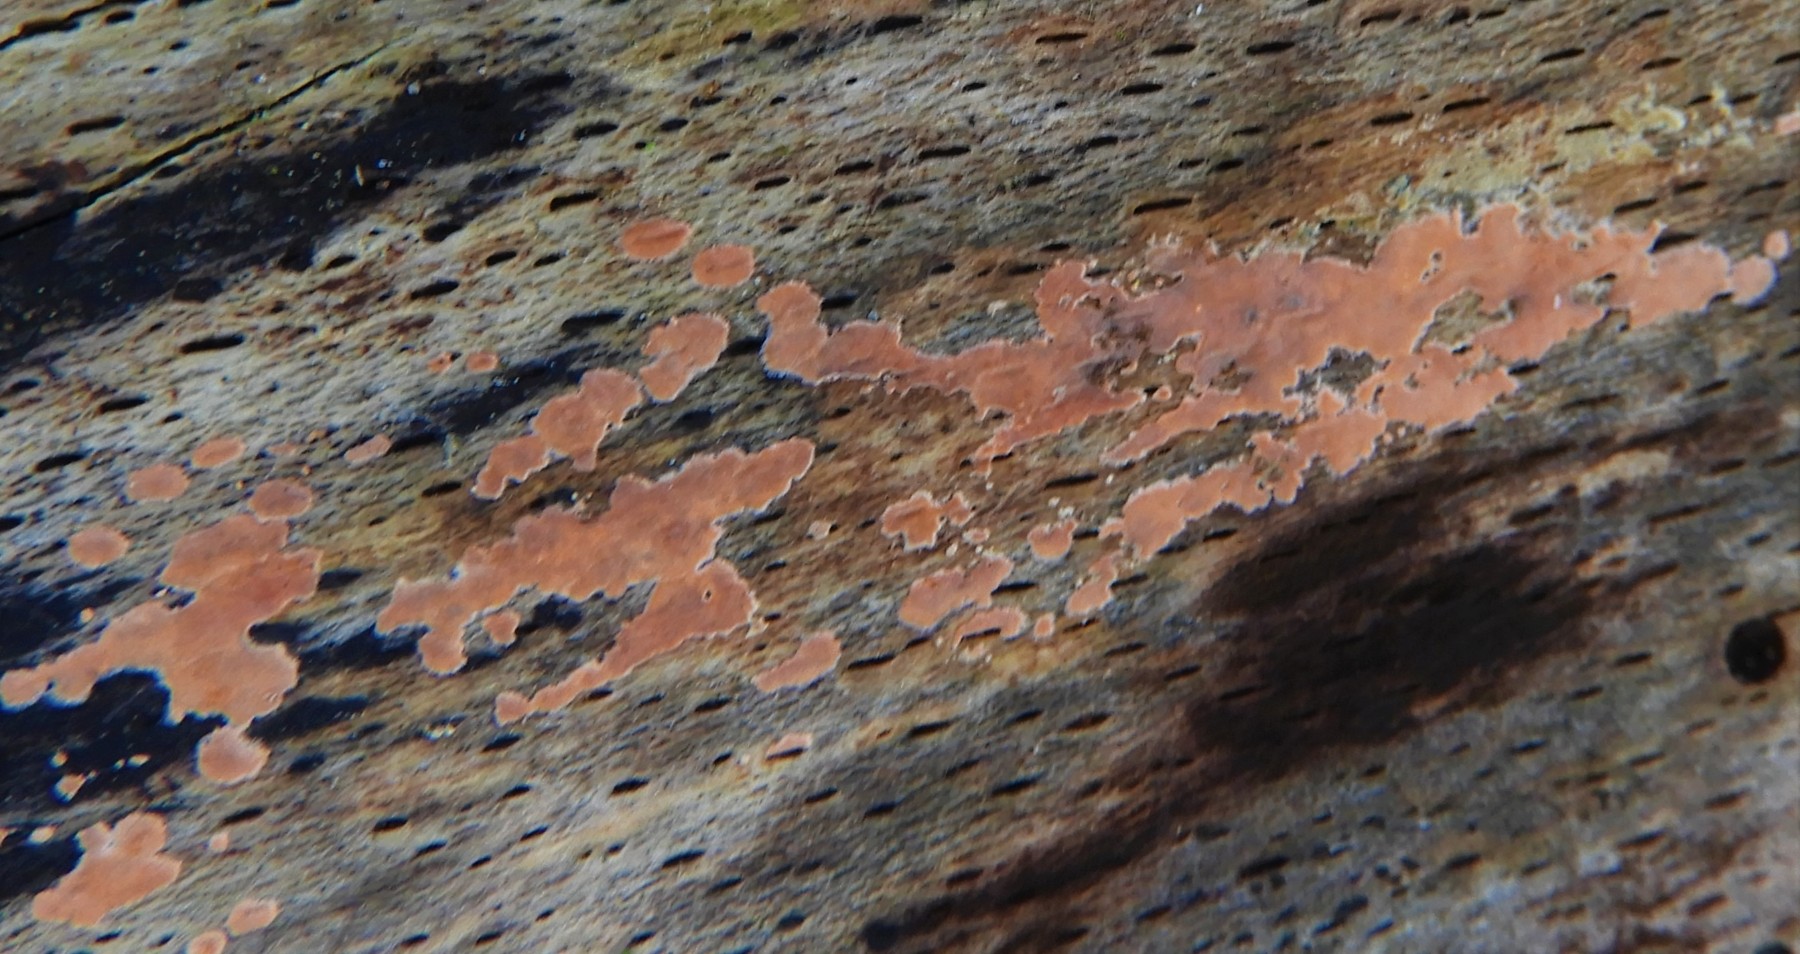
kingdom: Fungi
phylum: Basidiomycota
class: Agaricomycetes
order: Russulales
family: Peniophoraceae
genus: Peniophora
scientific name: Peniophora incarnata
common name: laksefarvet voksskind
